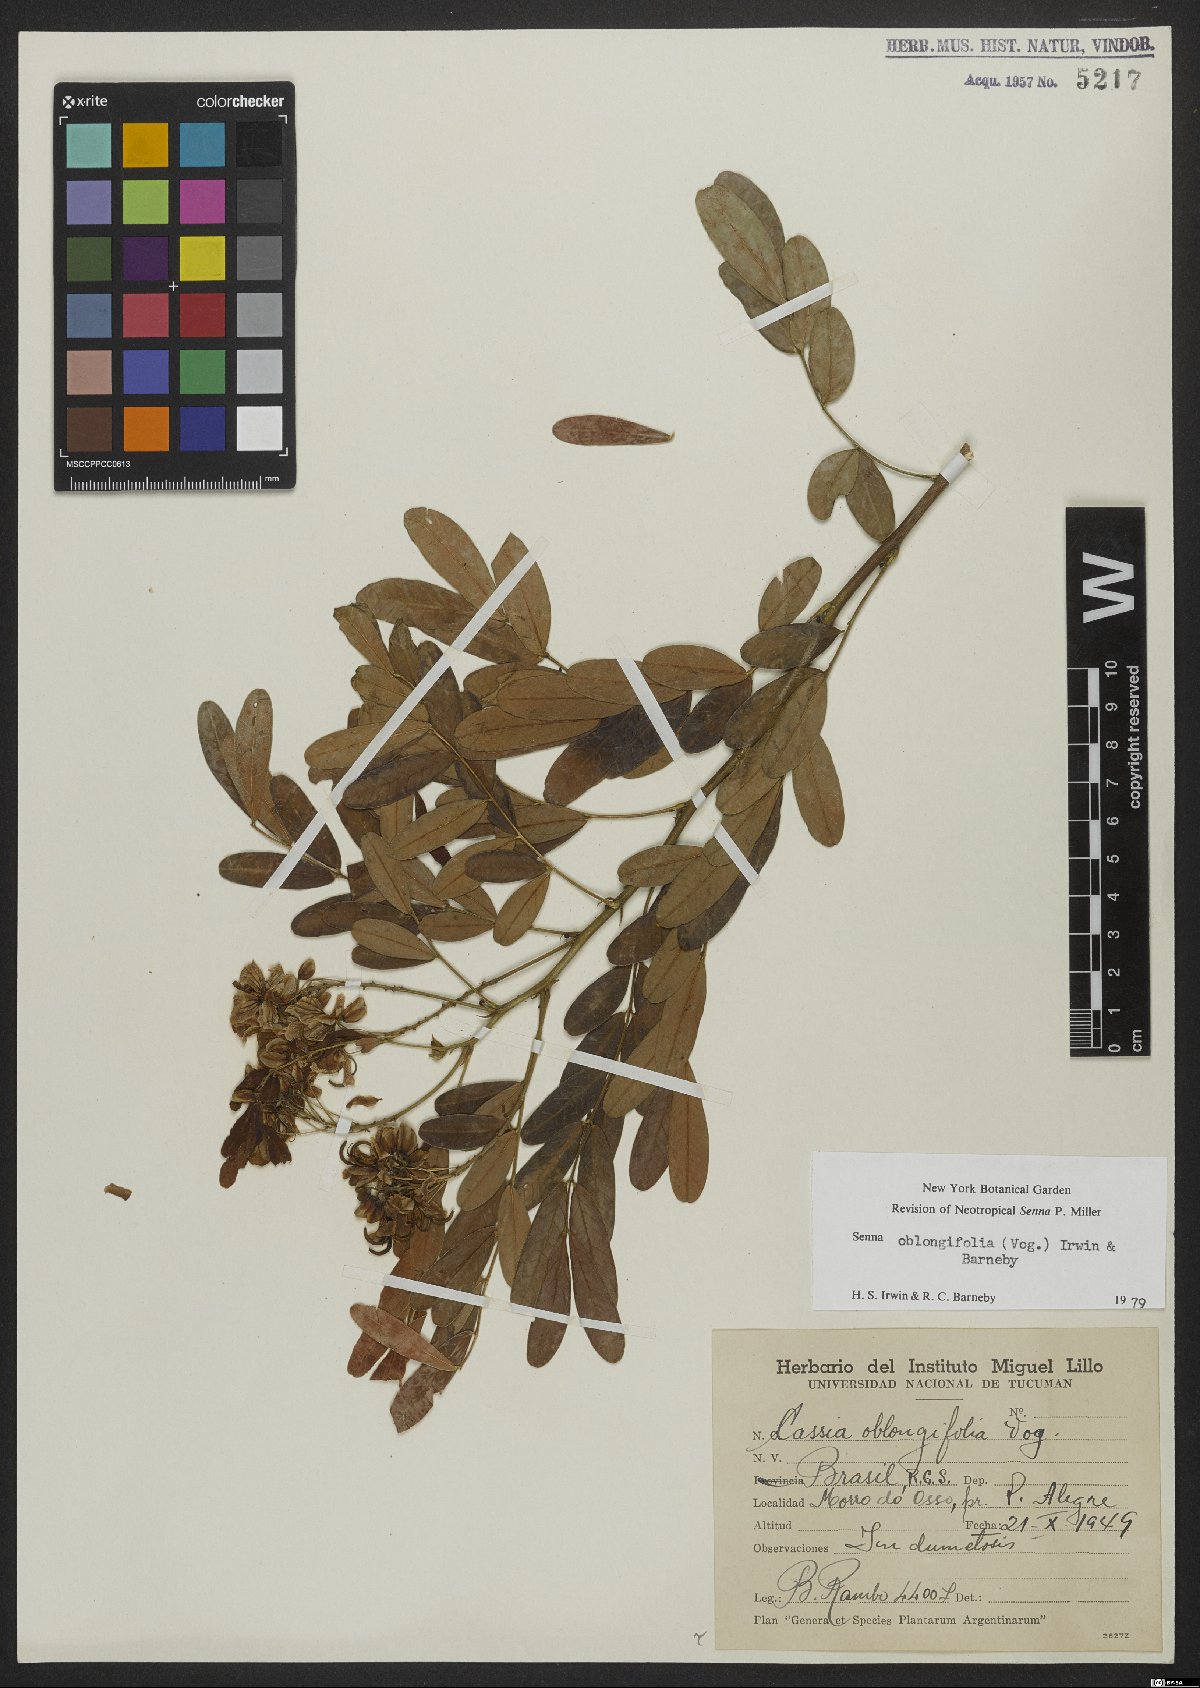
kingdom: Plantae
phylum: Tracheophyta
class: Magnoliopsida
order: Fabales
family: Fabaceae
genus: Senna
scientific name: Senna oblongifolia
